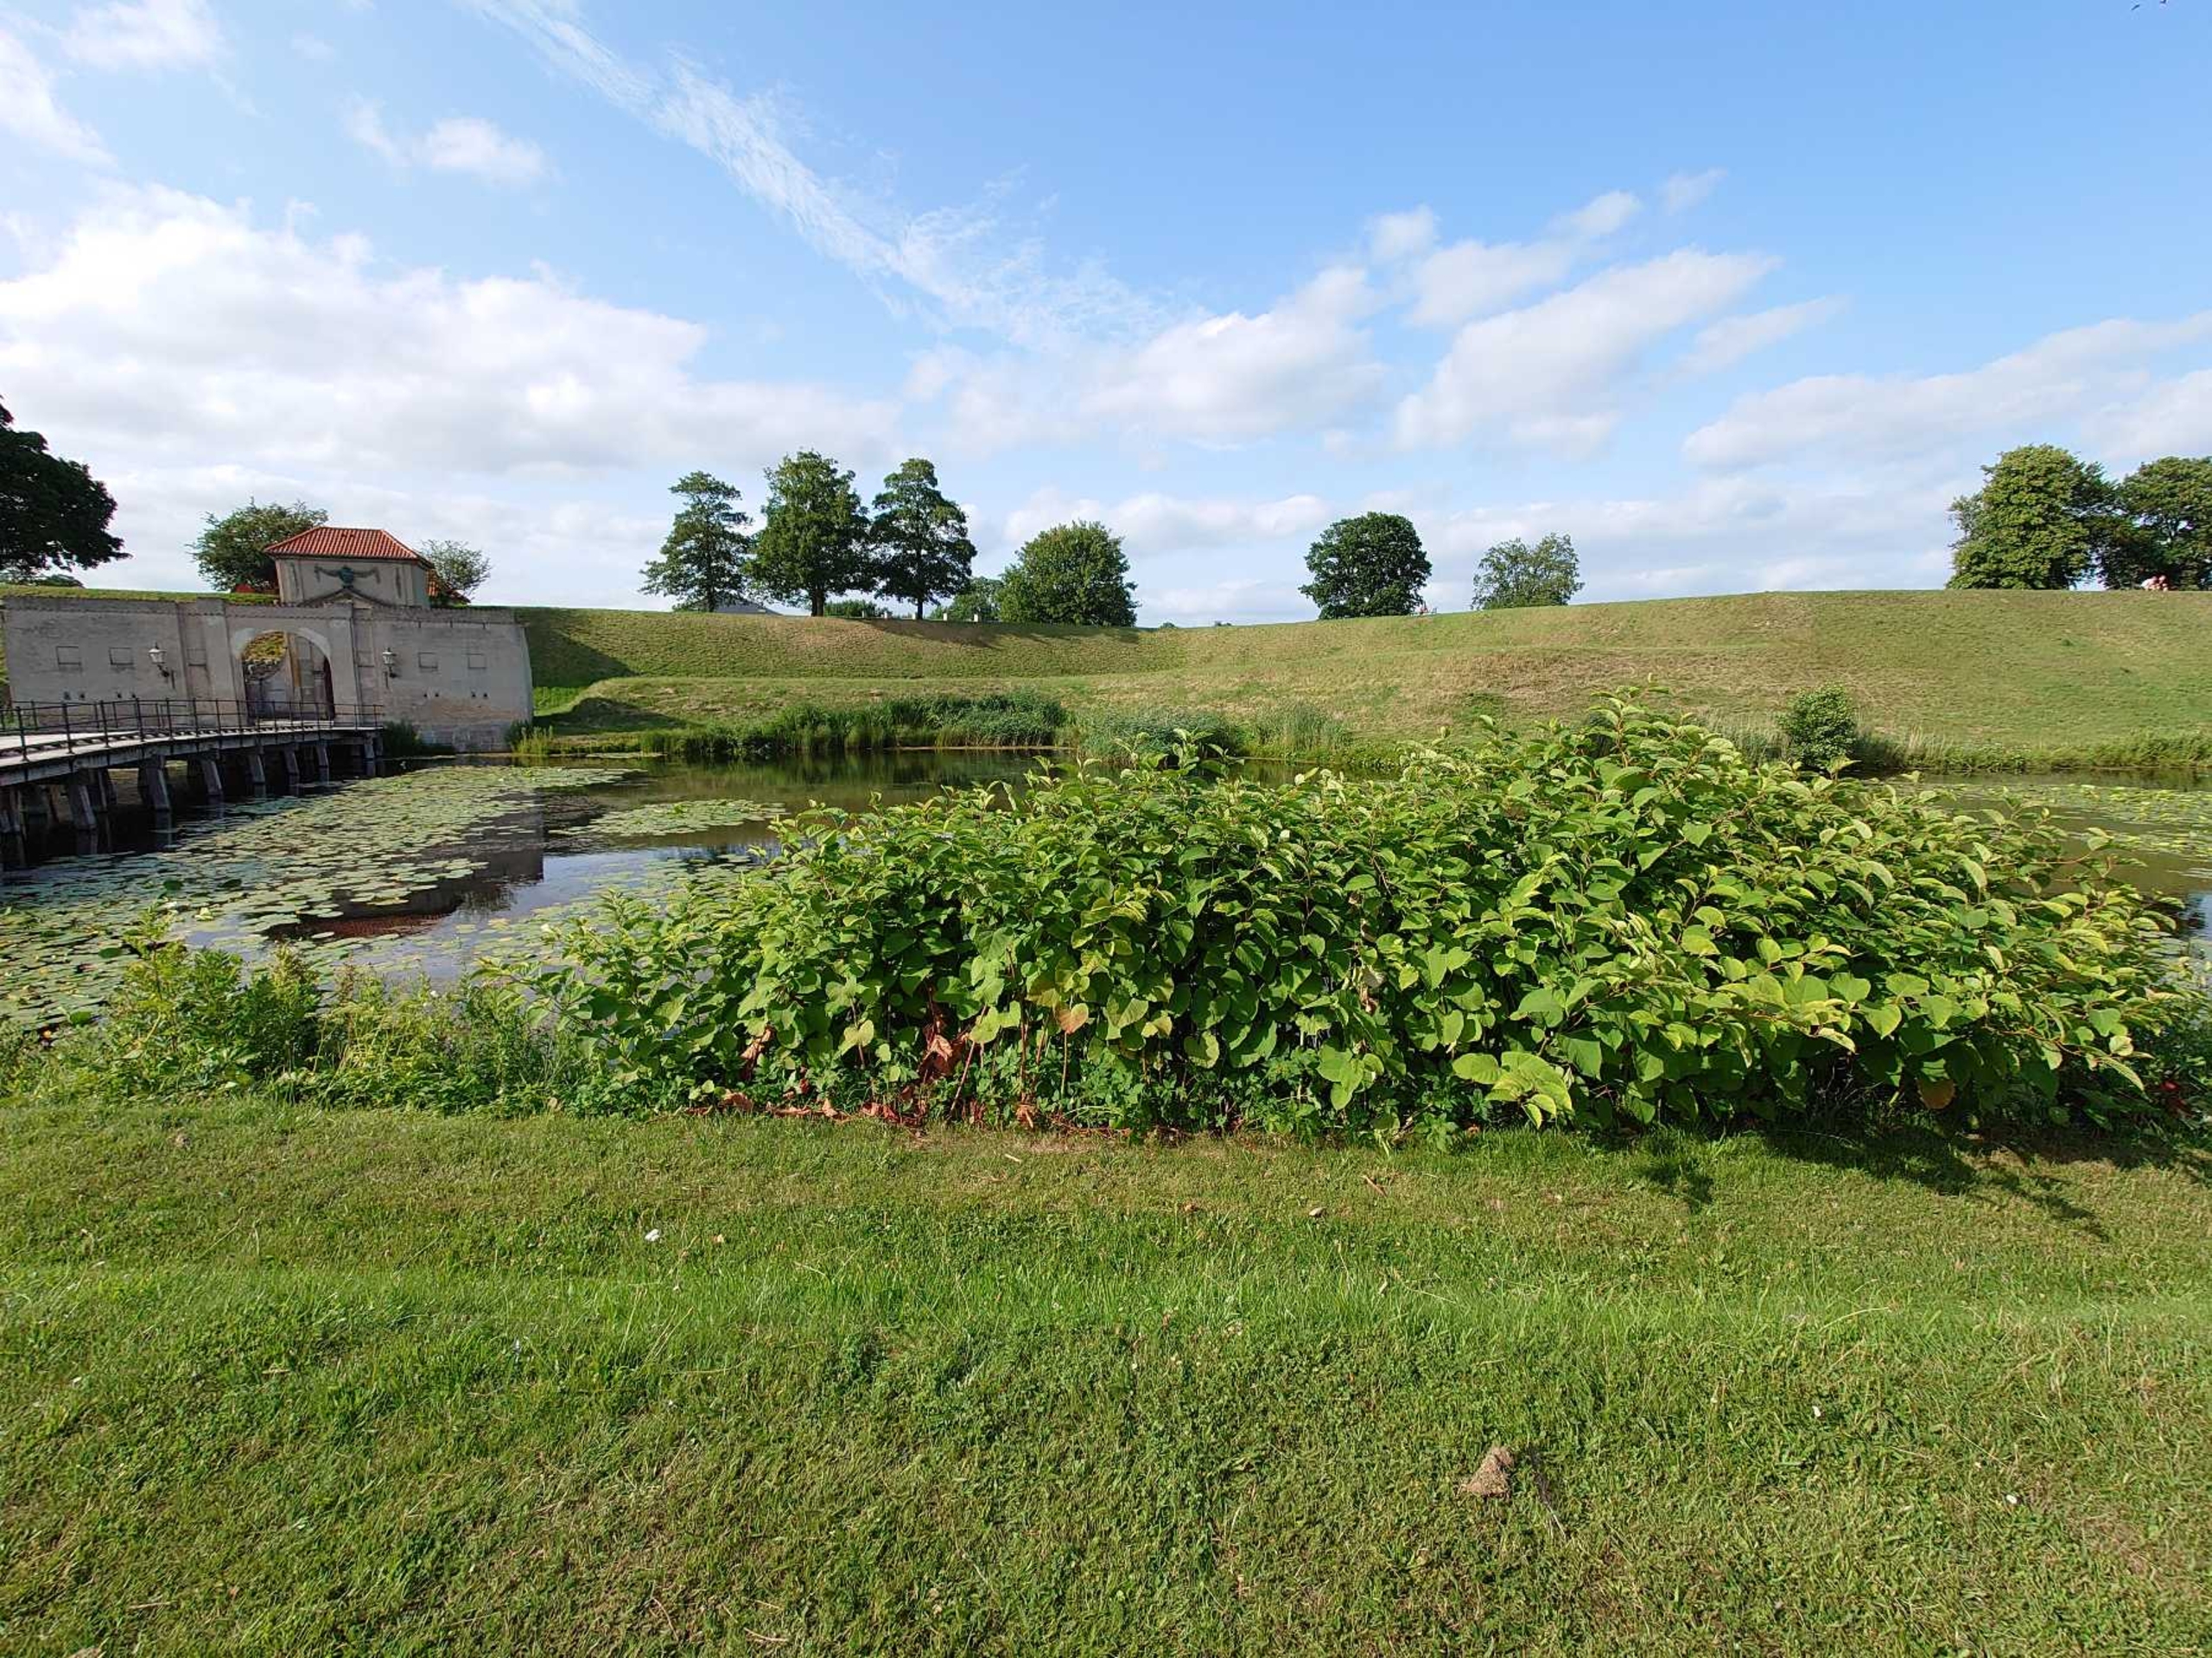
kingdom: Plantae
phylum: Tracheophyta
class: Magnoliopsida
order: Caryophyllales
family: Polygonaceae
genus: Reynoutria
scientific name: Reynoutria sachalinensis
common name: Kæmpe-pileurt
